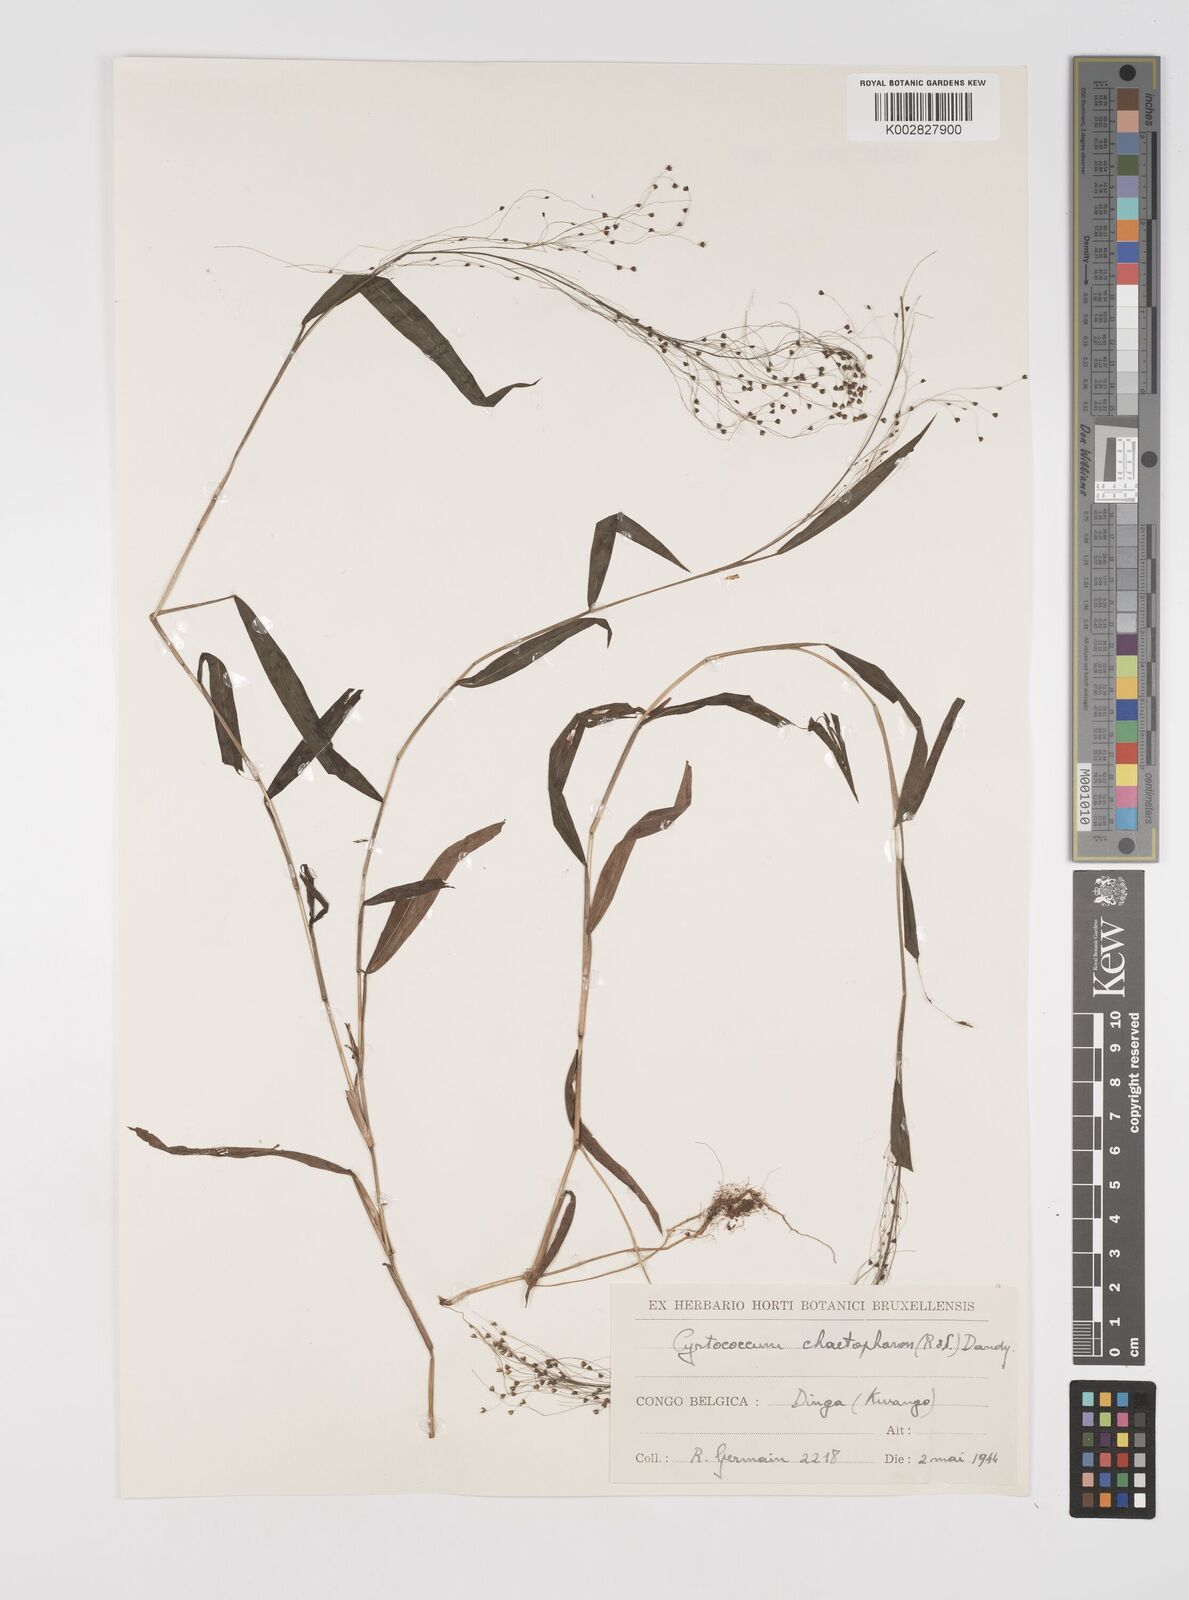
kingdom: Plantae
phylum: Tracheophyta
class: Liliopsida
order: Poales
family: Poaceae
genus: Cyrtococcum
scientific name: Cyrtococcum chaetophoron
